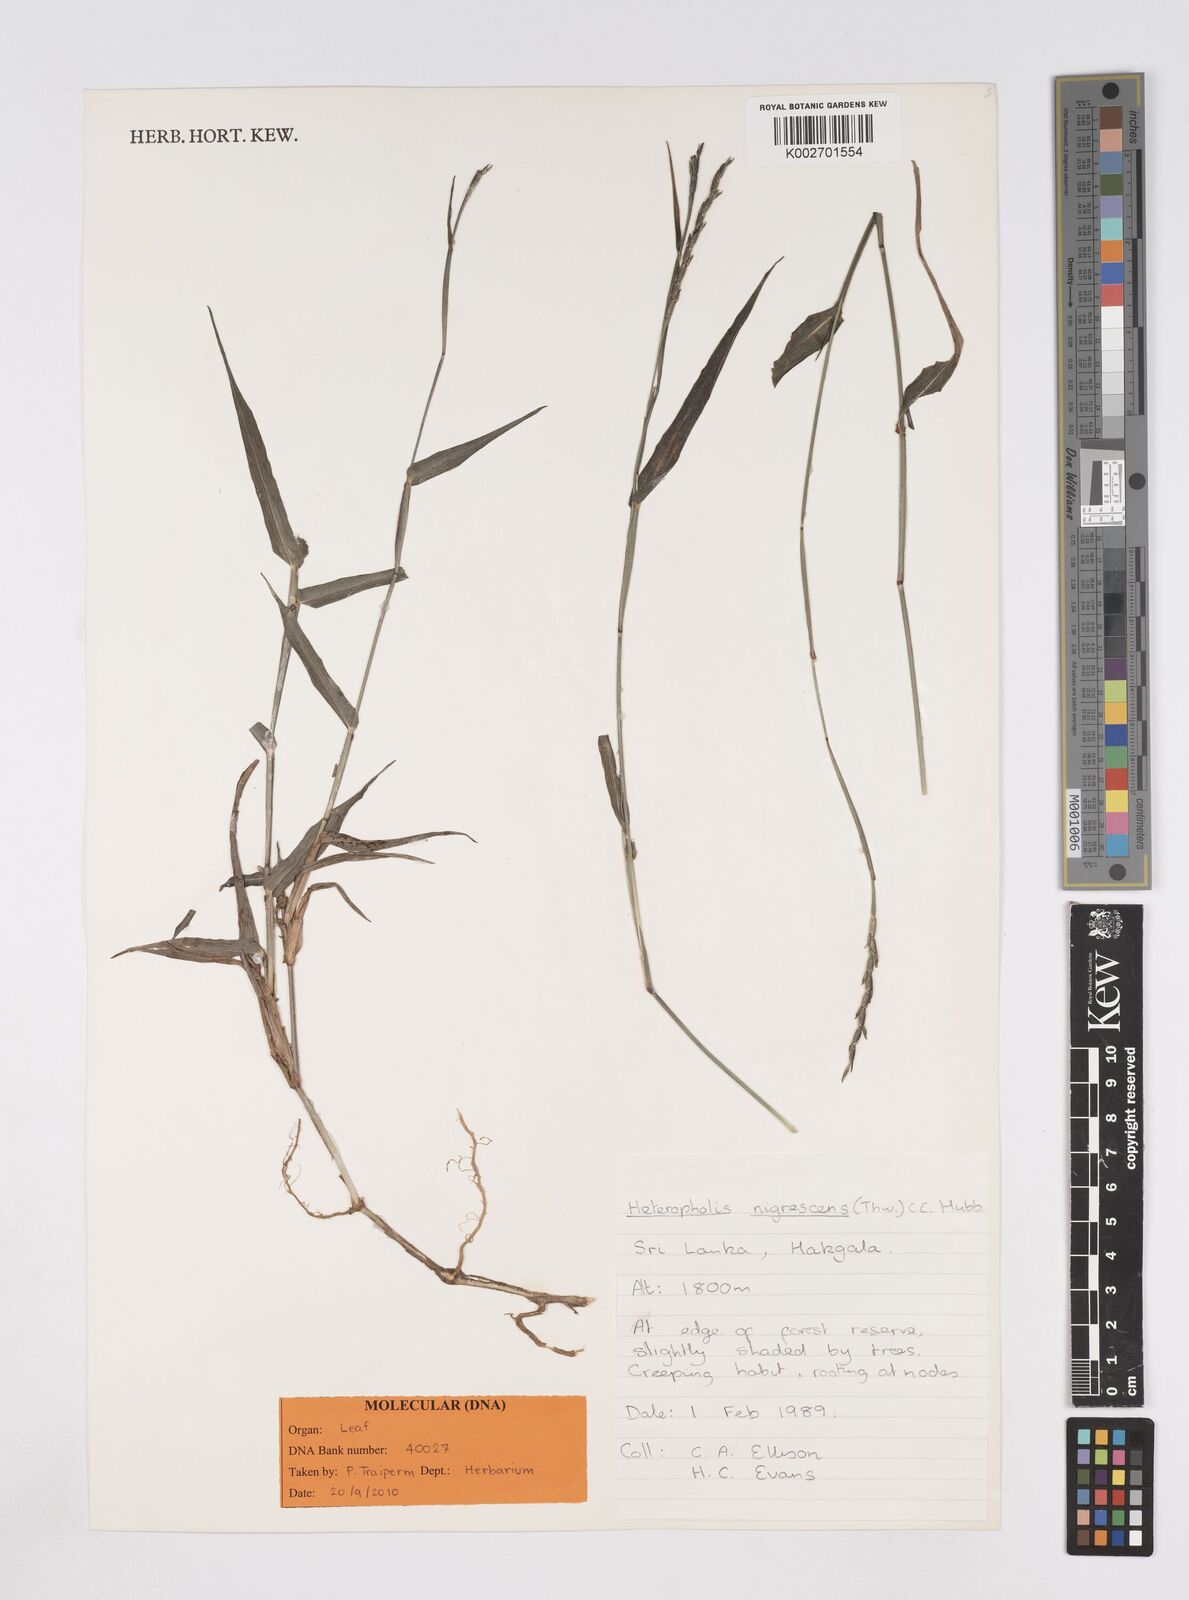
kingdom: Plantae
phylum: Tracheophyta
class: Liliopsida
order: Poales
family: Poaceae
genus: Heteropholis
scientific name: Heteropholis nigrescens
